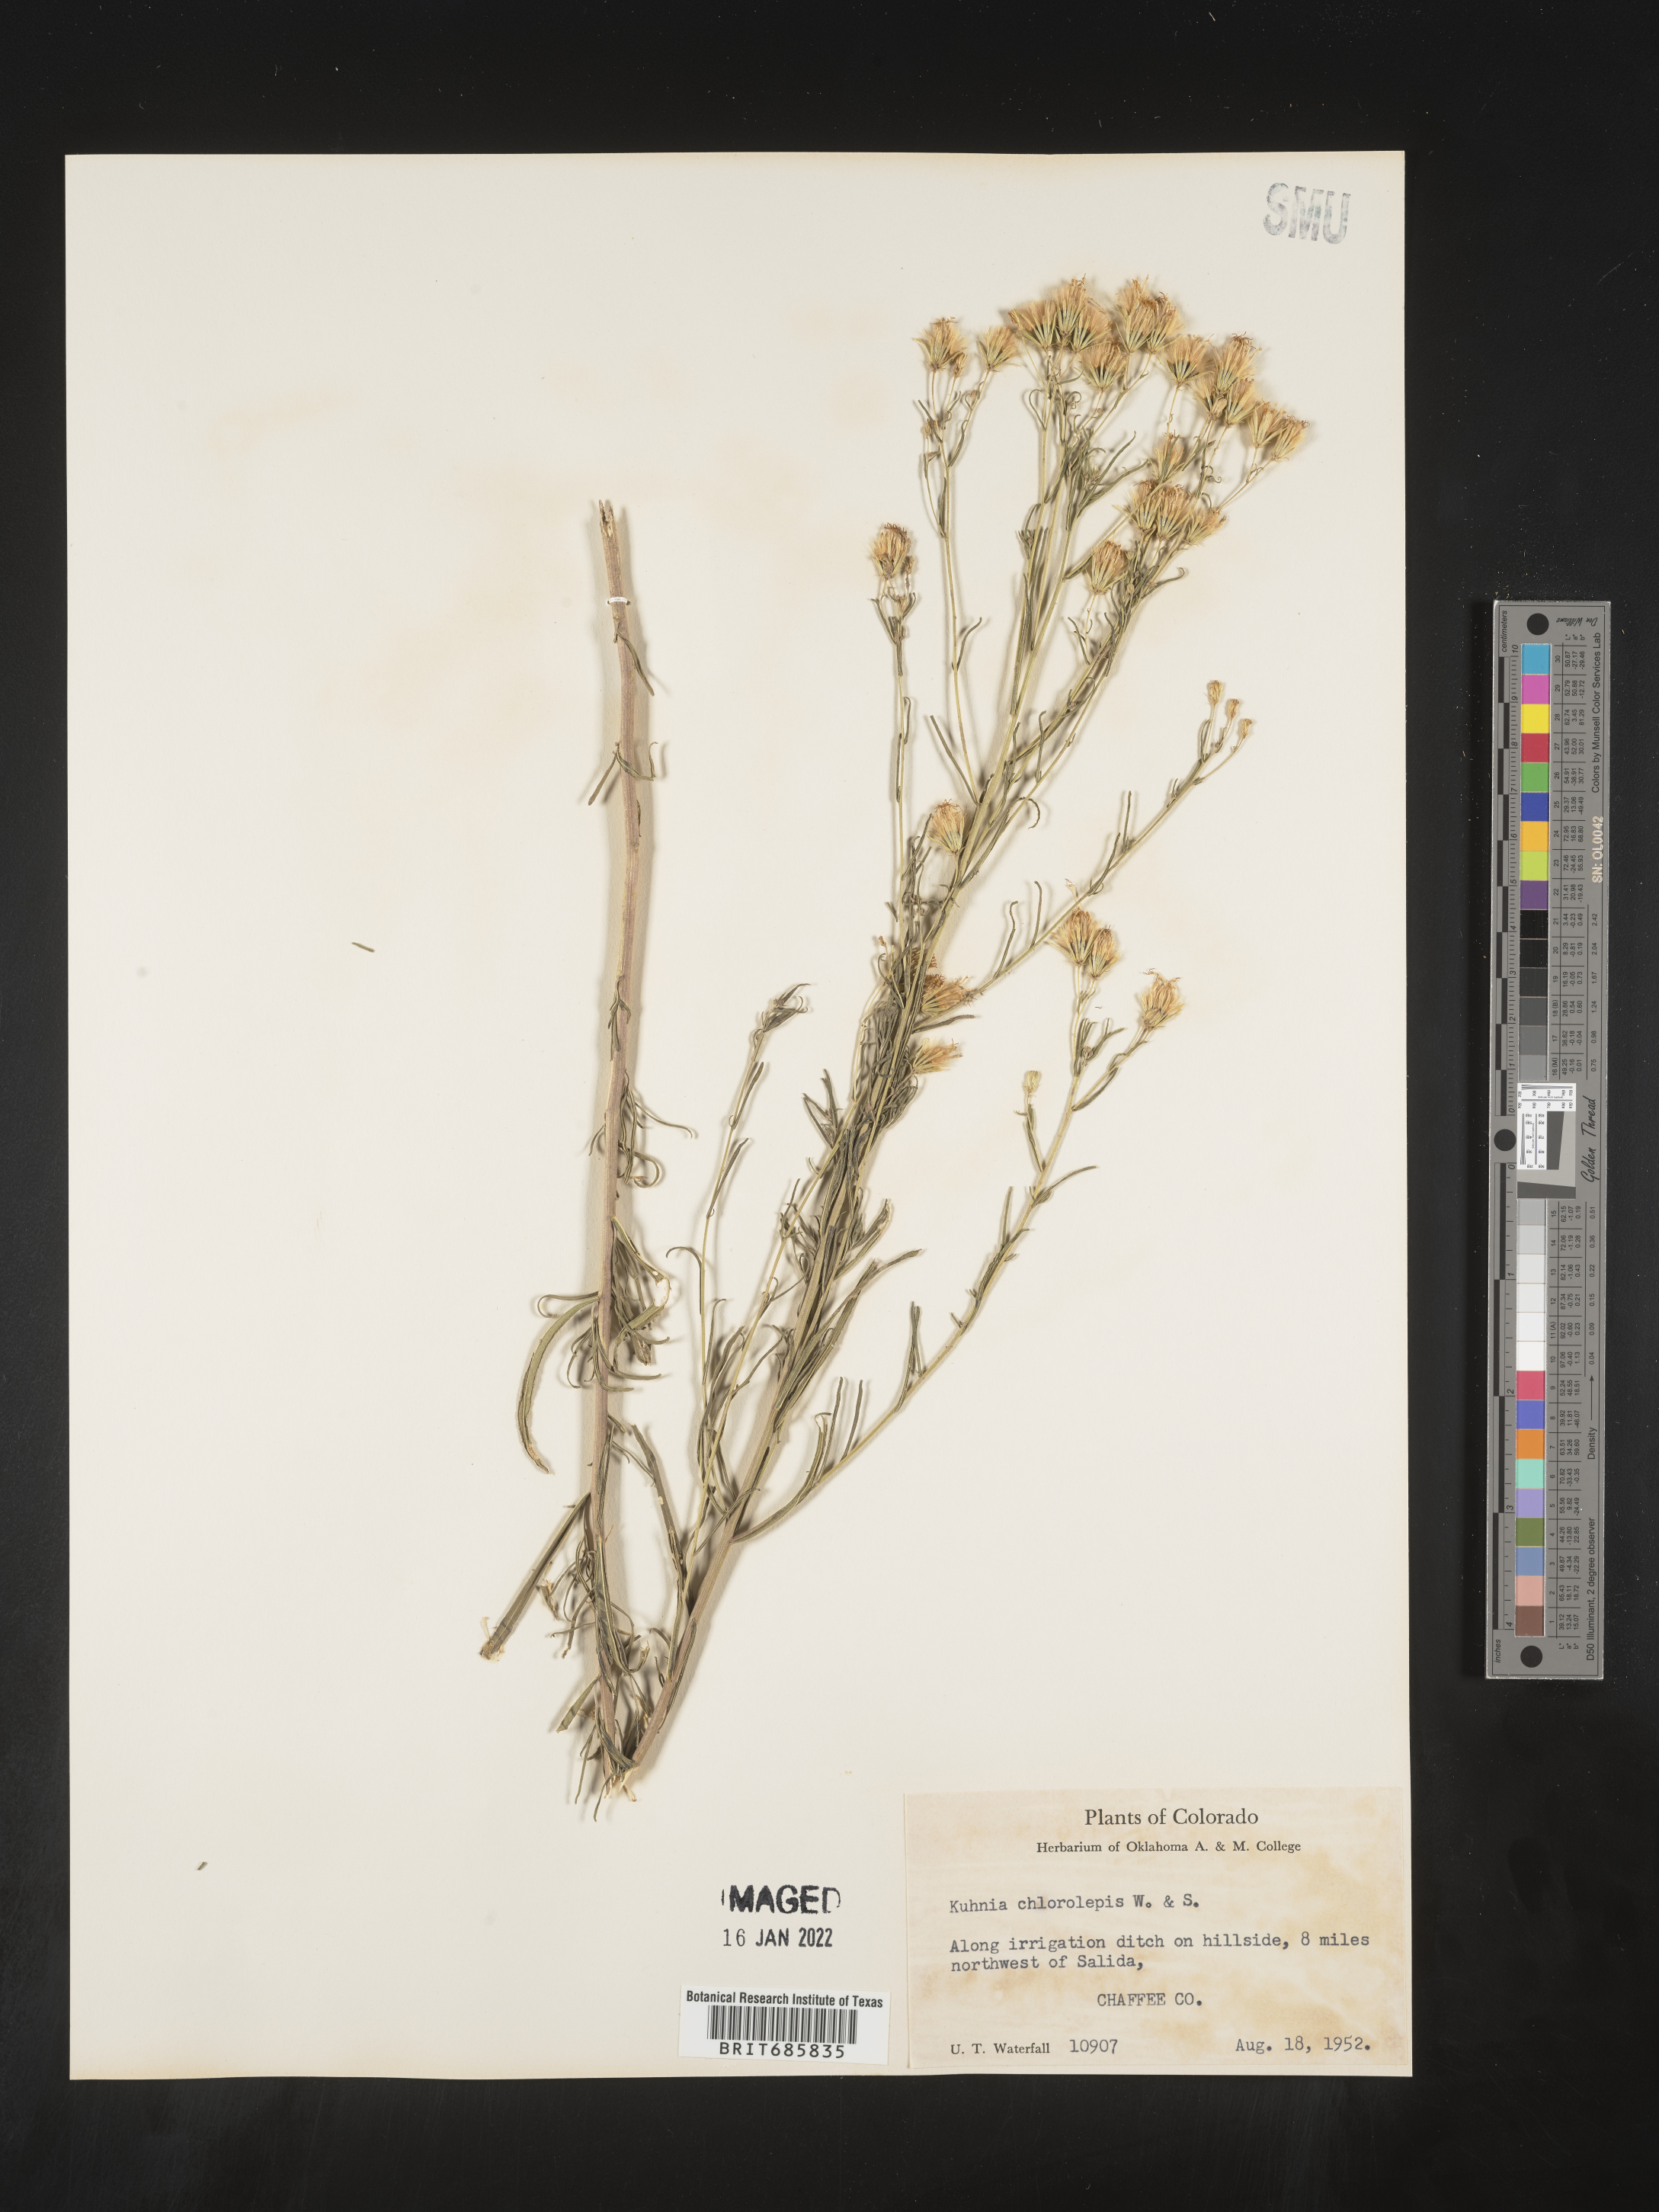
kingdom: Plantae
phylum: Tracheophyta
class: Magnoliopsida
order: Asterales
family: Asteraceae
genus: Brickellia
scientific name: Brickellia leptophylla
